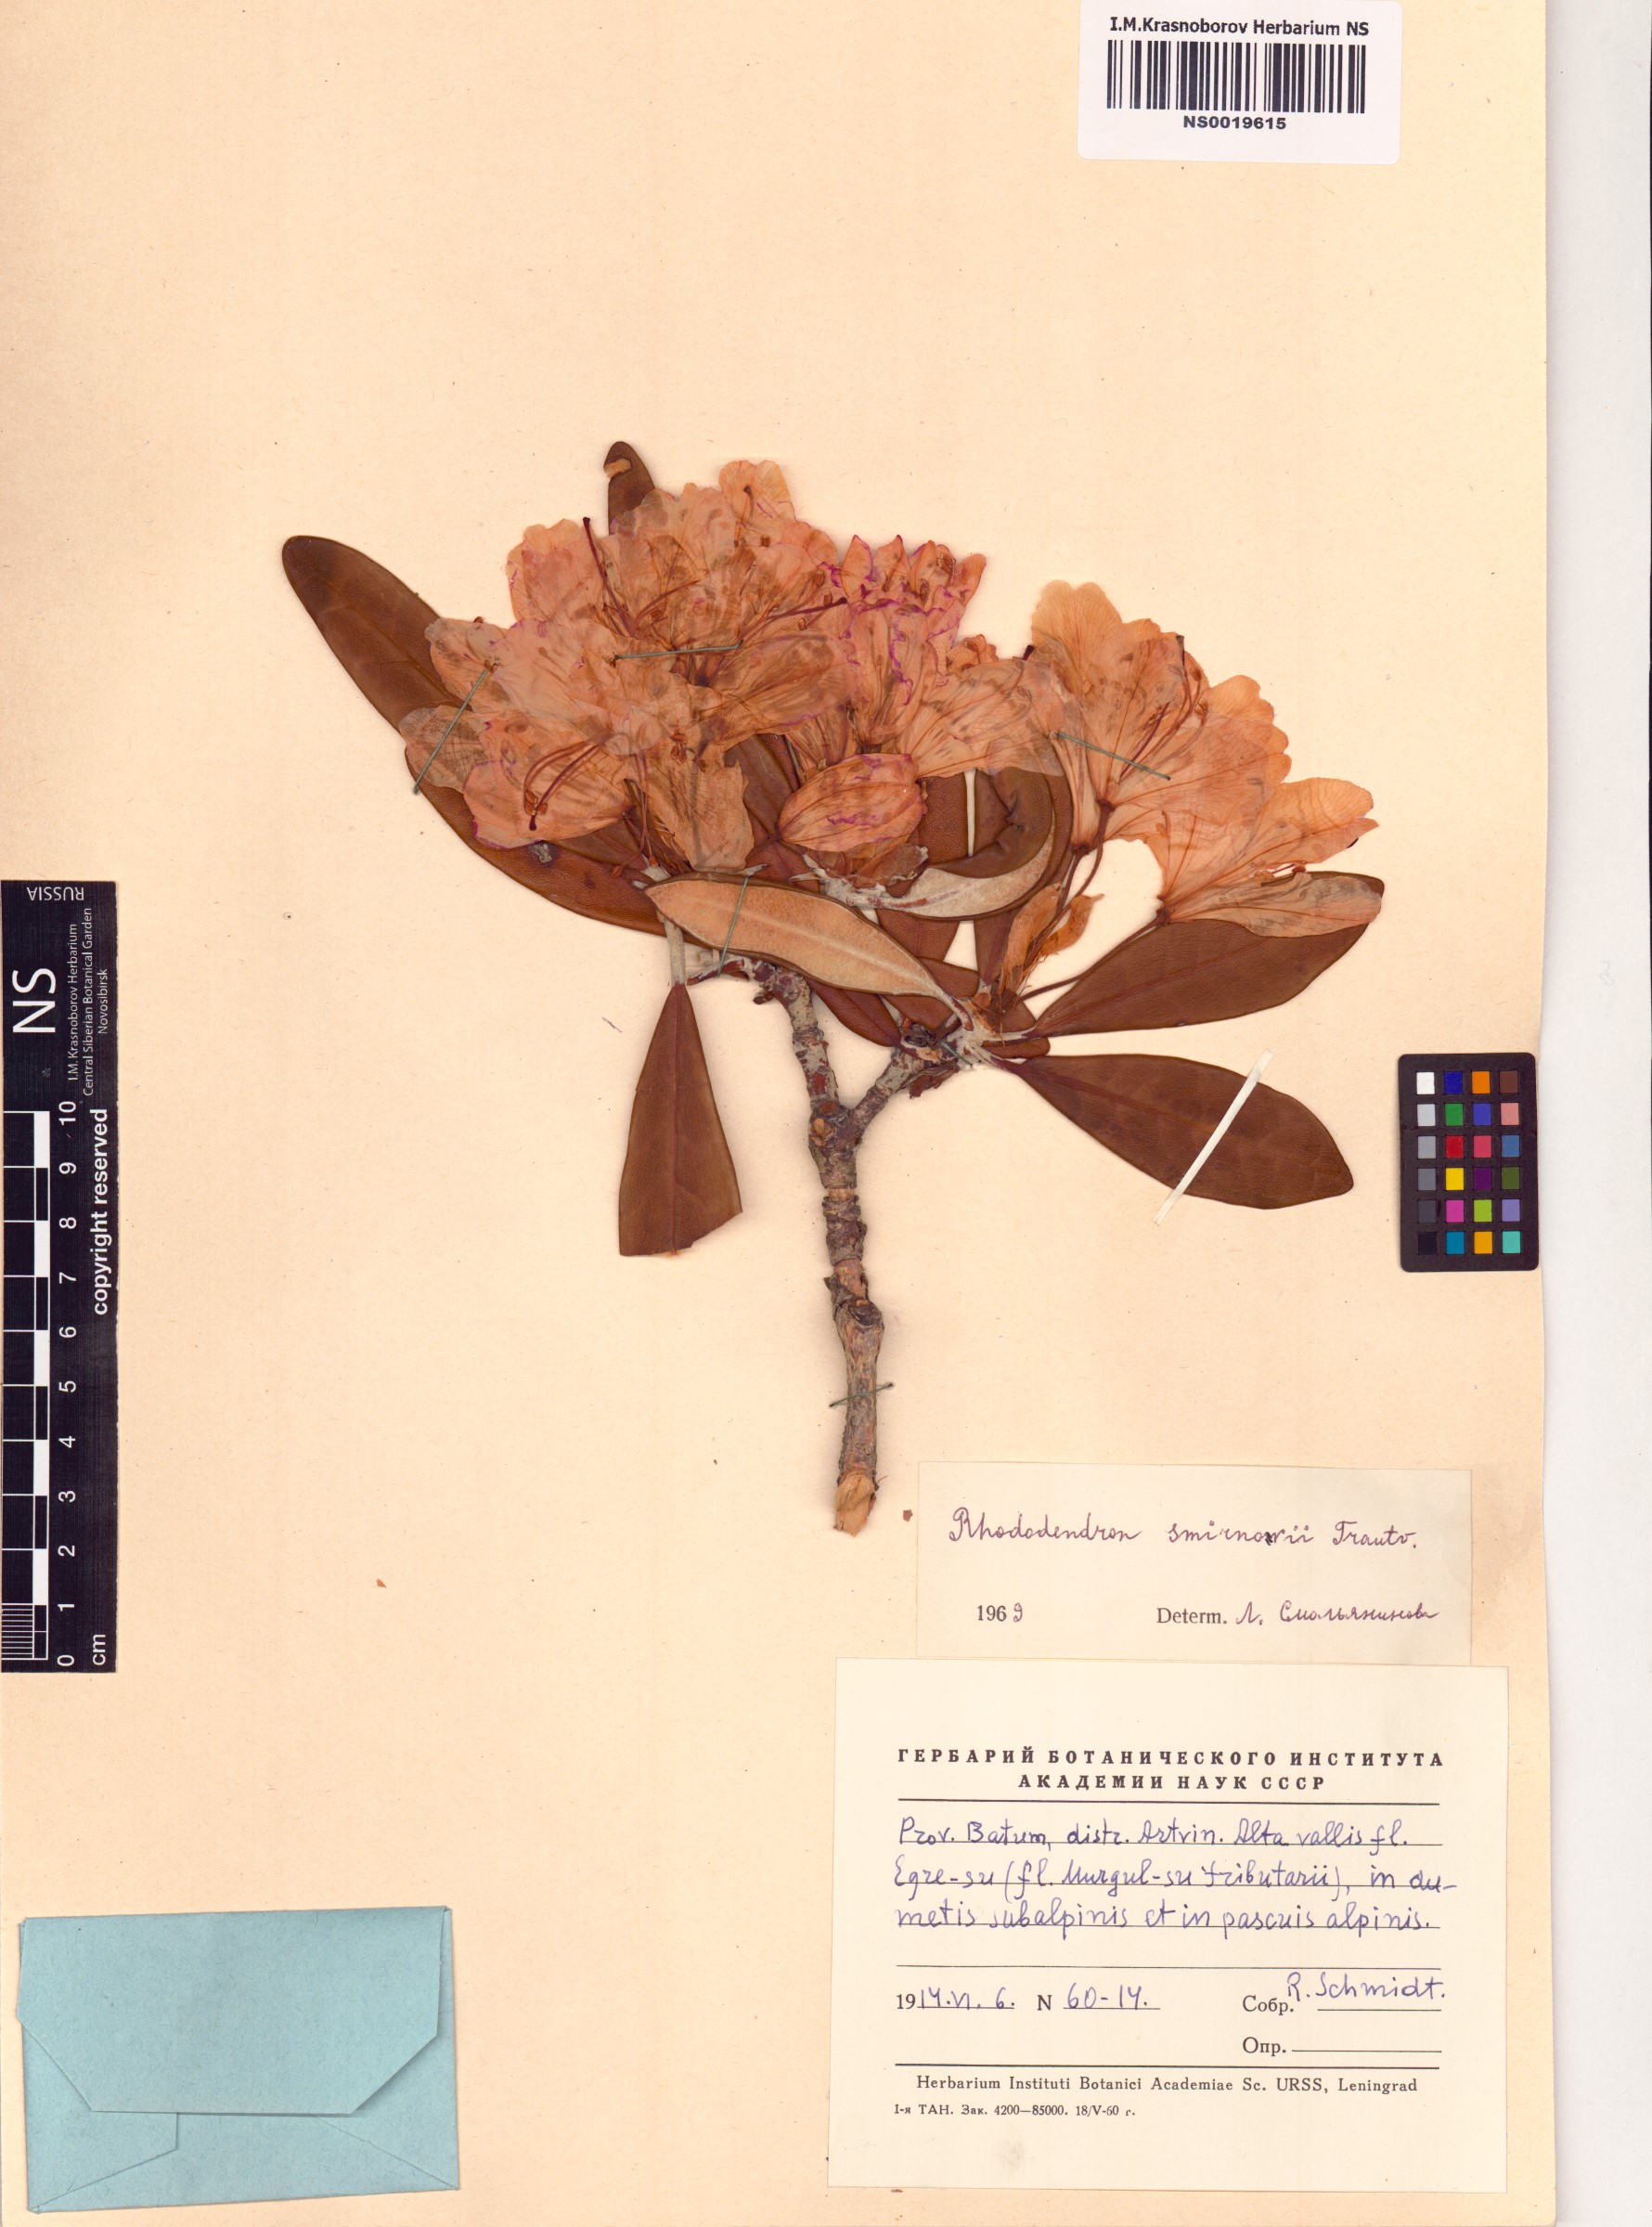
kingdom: Plantae
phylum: Tracheophyta
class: Magnoliopsida
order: Ericales
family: Ericaceae
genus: Rhododendron
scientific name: Rhododendron smirnowii
